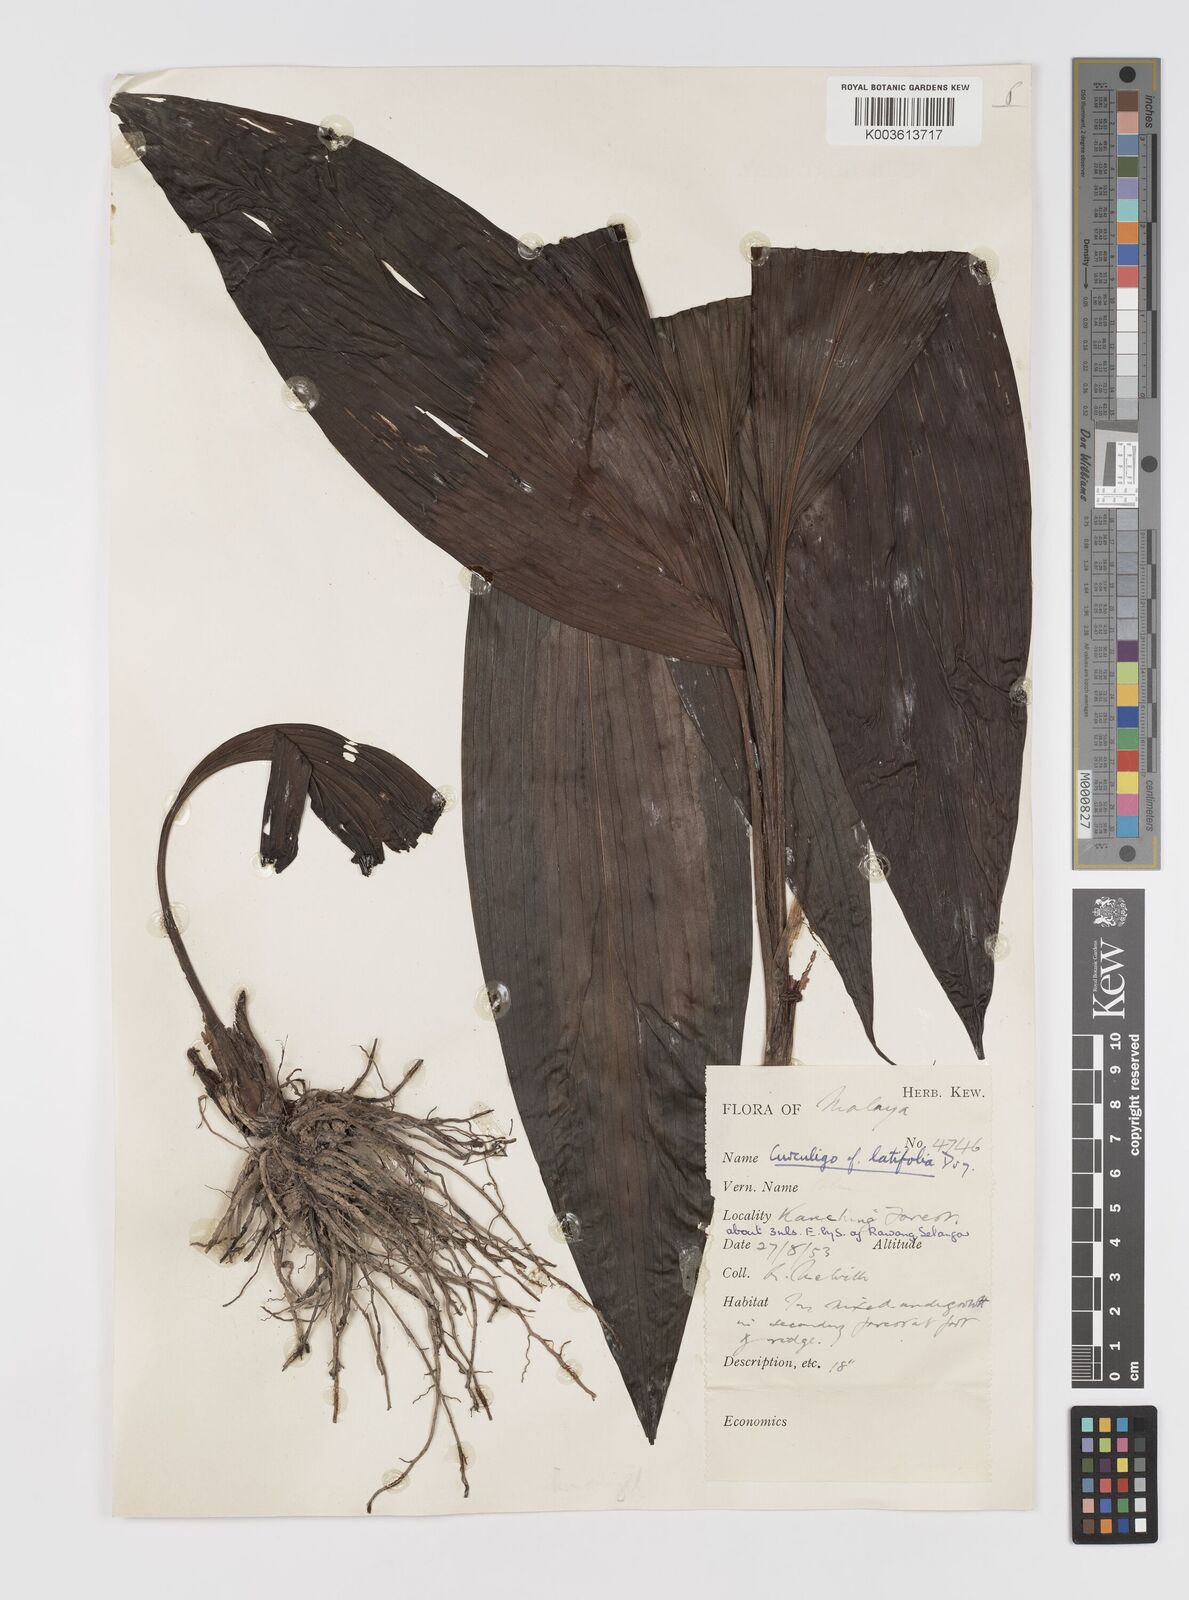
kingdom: Plantae
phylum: Tracheophyta
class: Liliopsida
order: Asparagales
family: Hypoxidaceae
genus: Curculigo
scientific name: Curculigo latifolia
